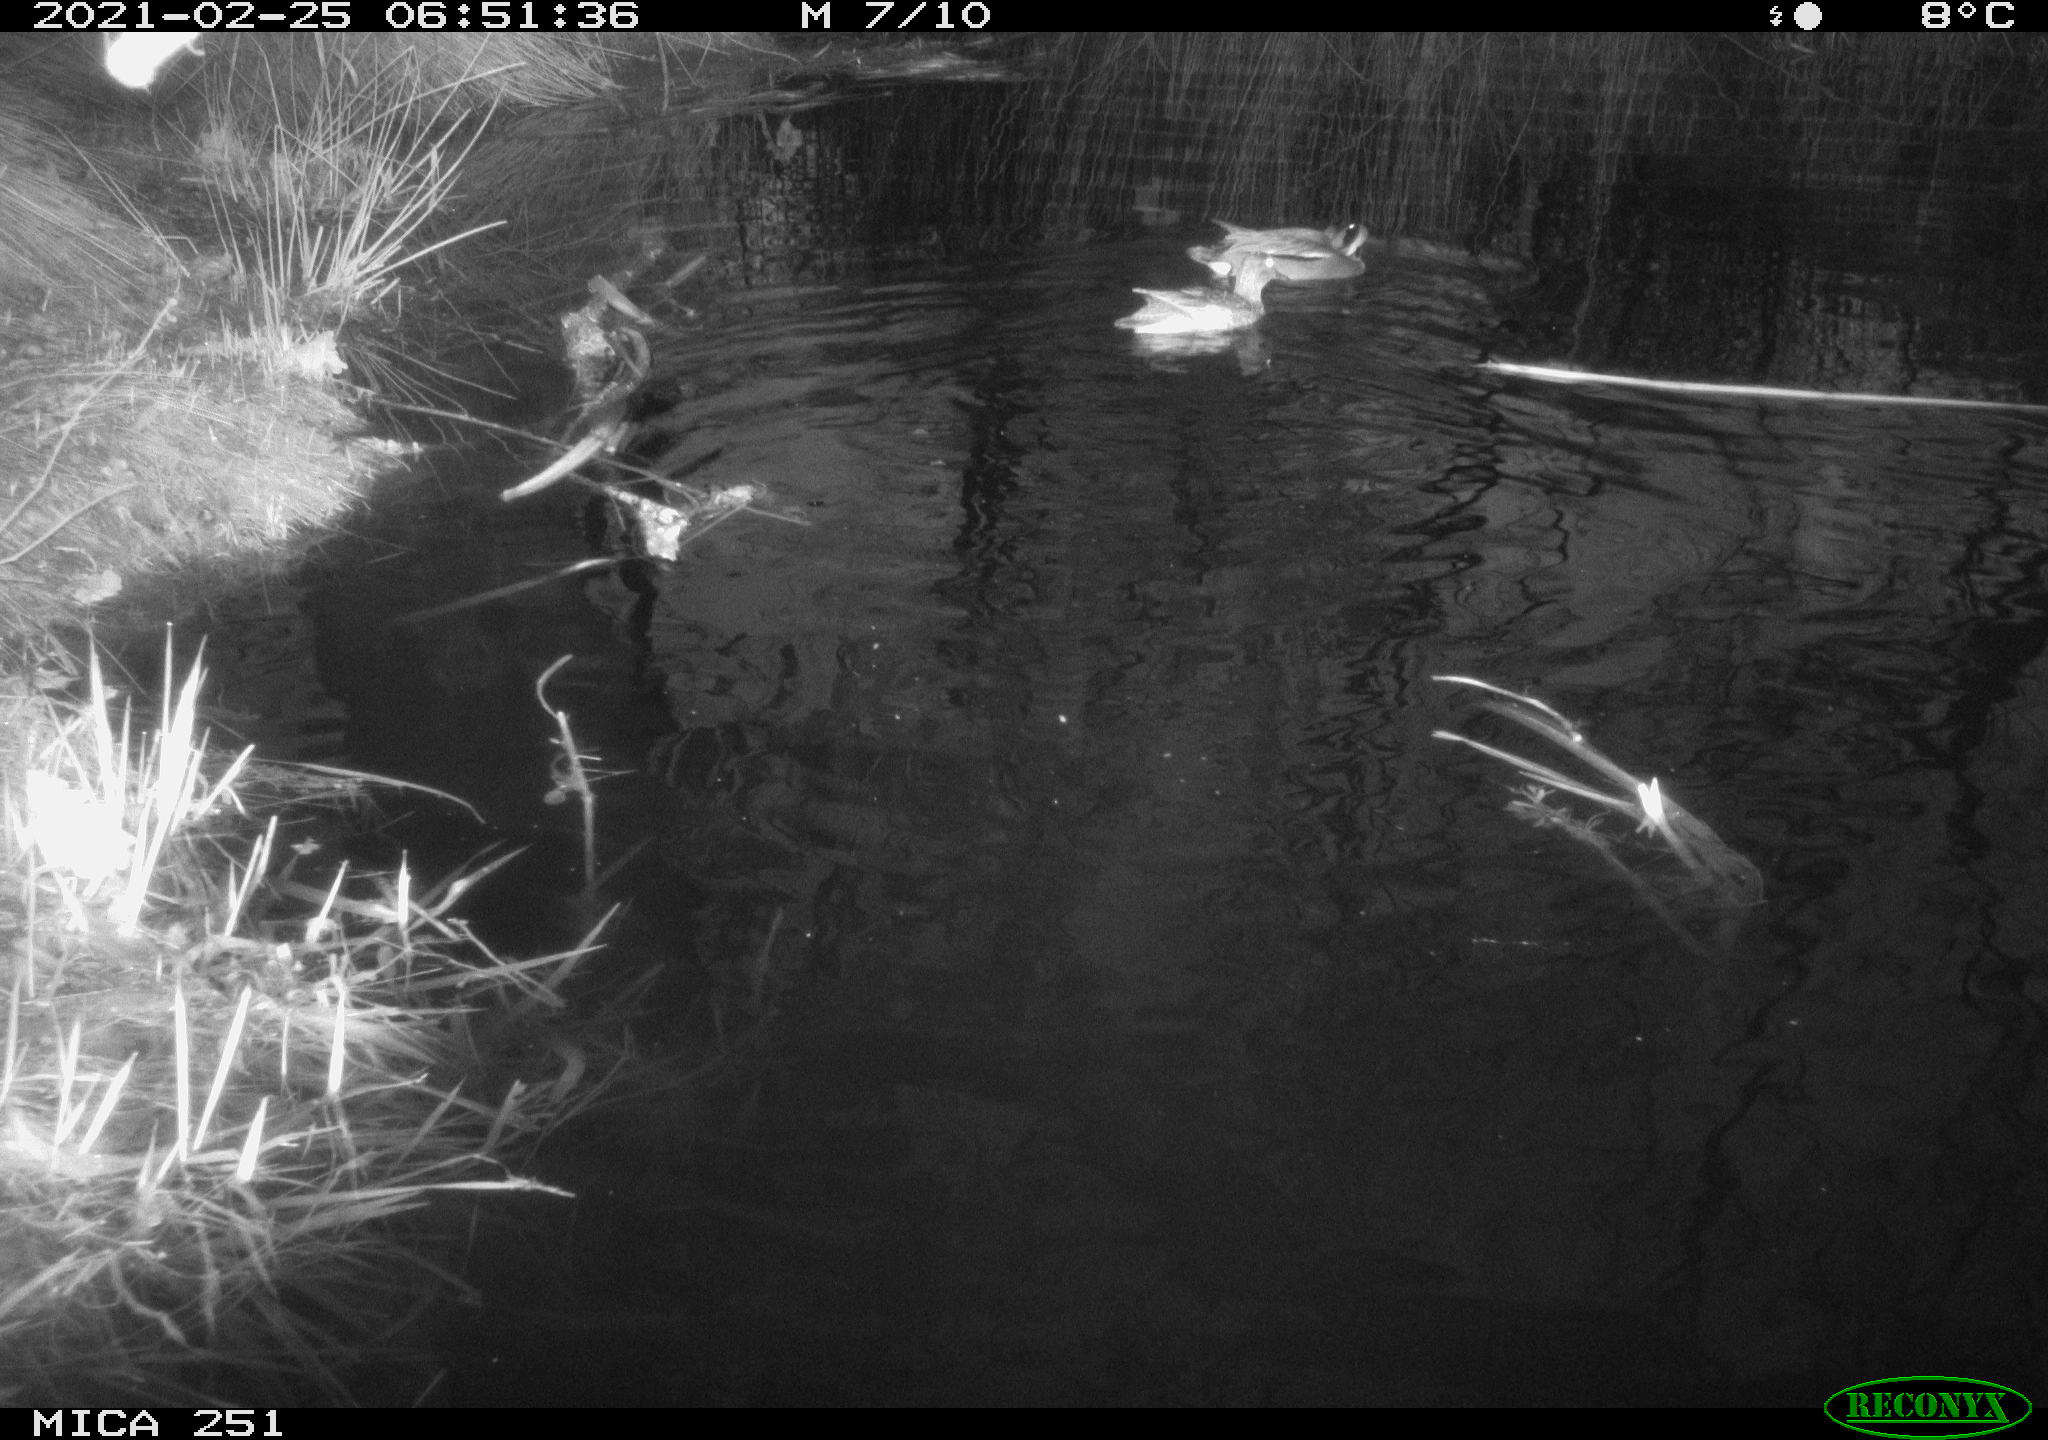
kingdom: Animalia
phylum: Chordata
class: Aves
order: Anseriformes
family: Anatidae
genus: Aix
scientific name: Aix galericulata
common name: Mandarin duck
